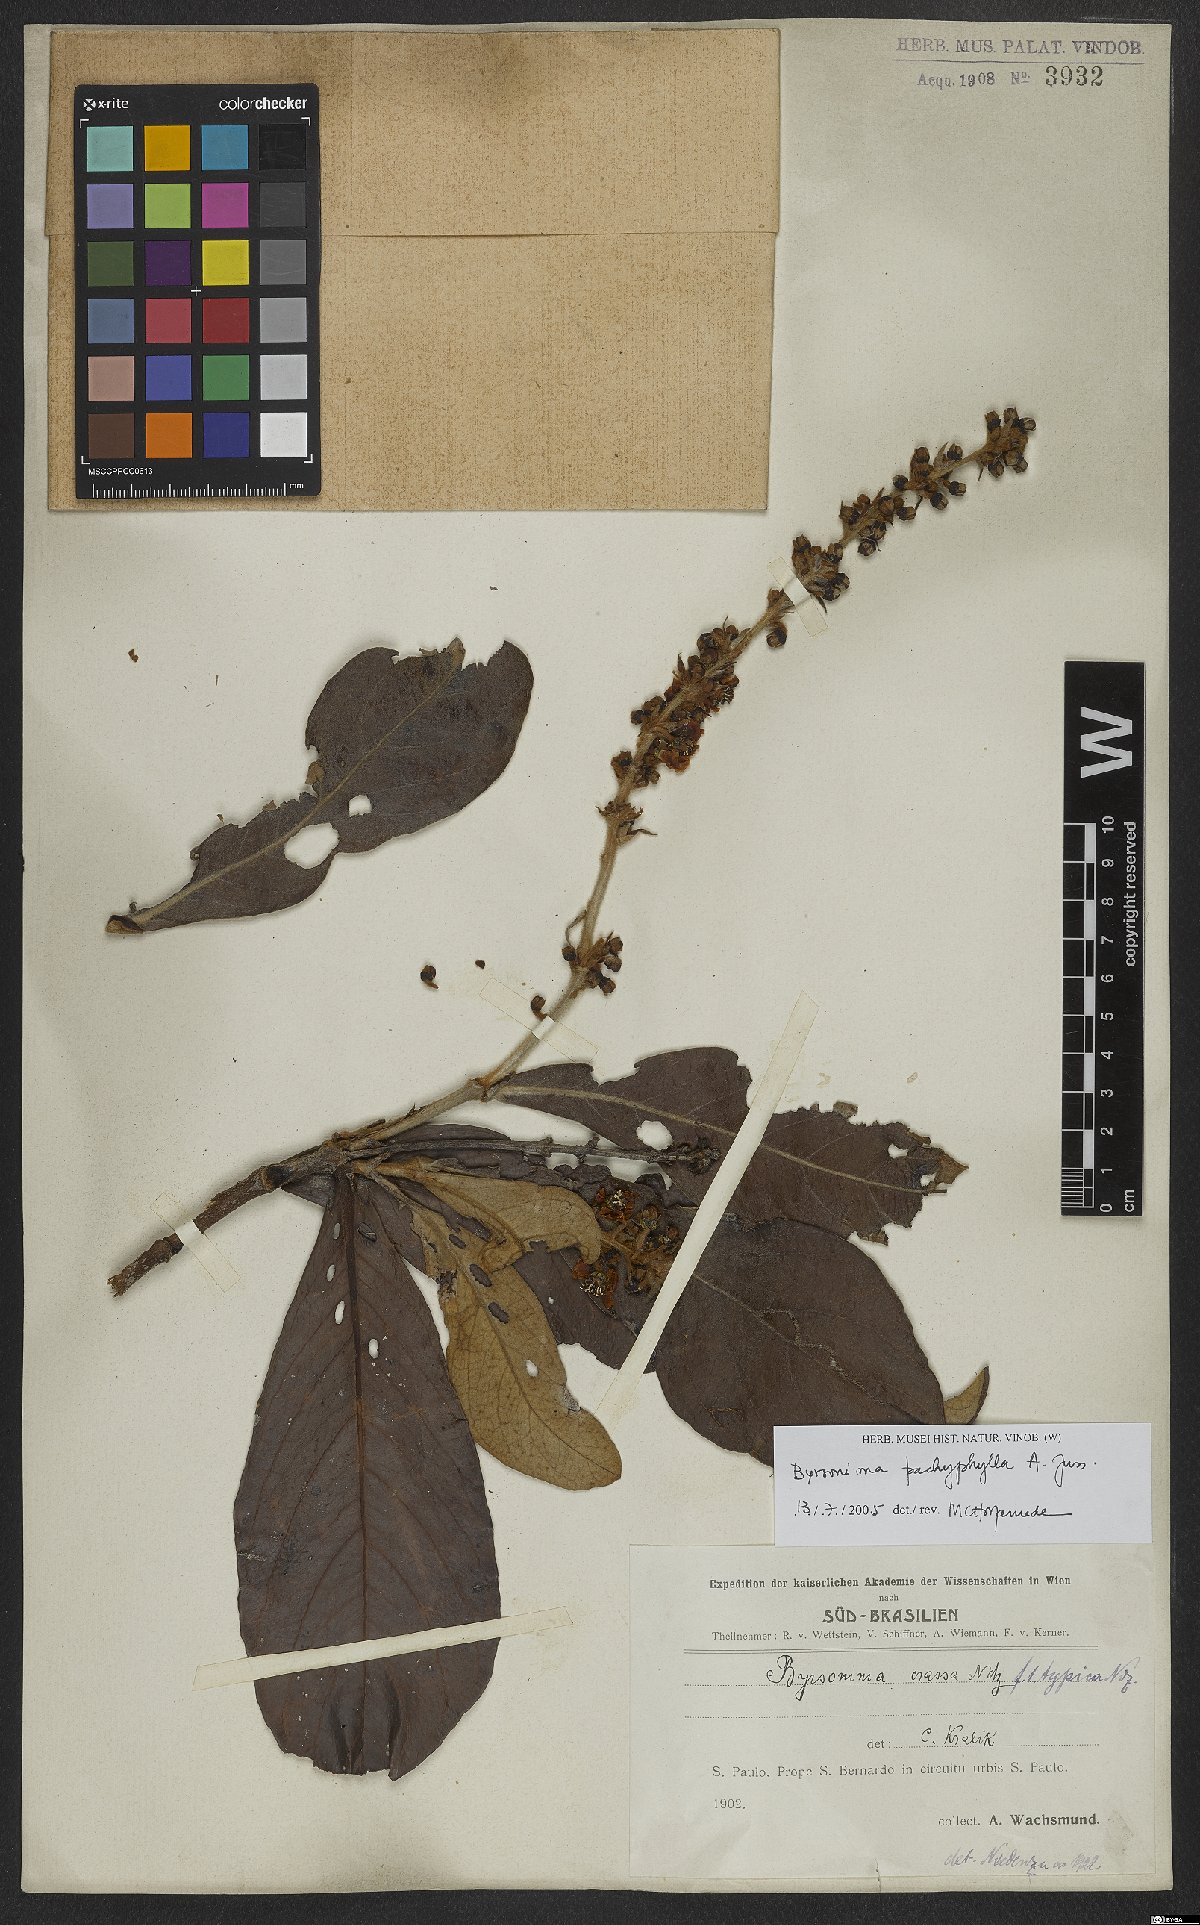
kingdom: Plantae
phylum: Tracheophyta
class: Magnoliopsida
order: Malpighiales
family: Malpighiaceae
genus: Byrsonima
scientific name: Byrsonima pachyphylla
